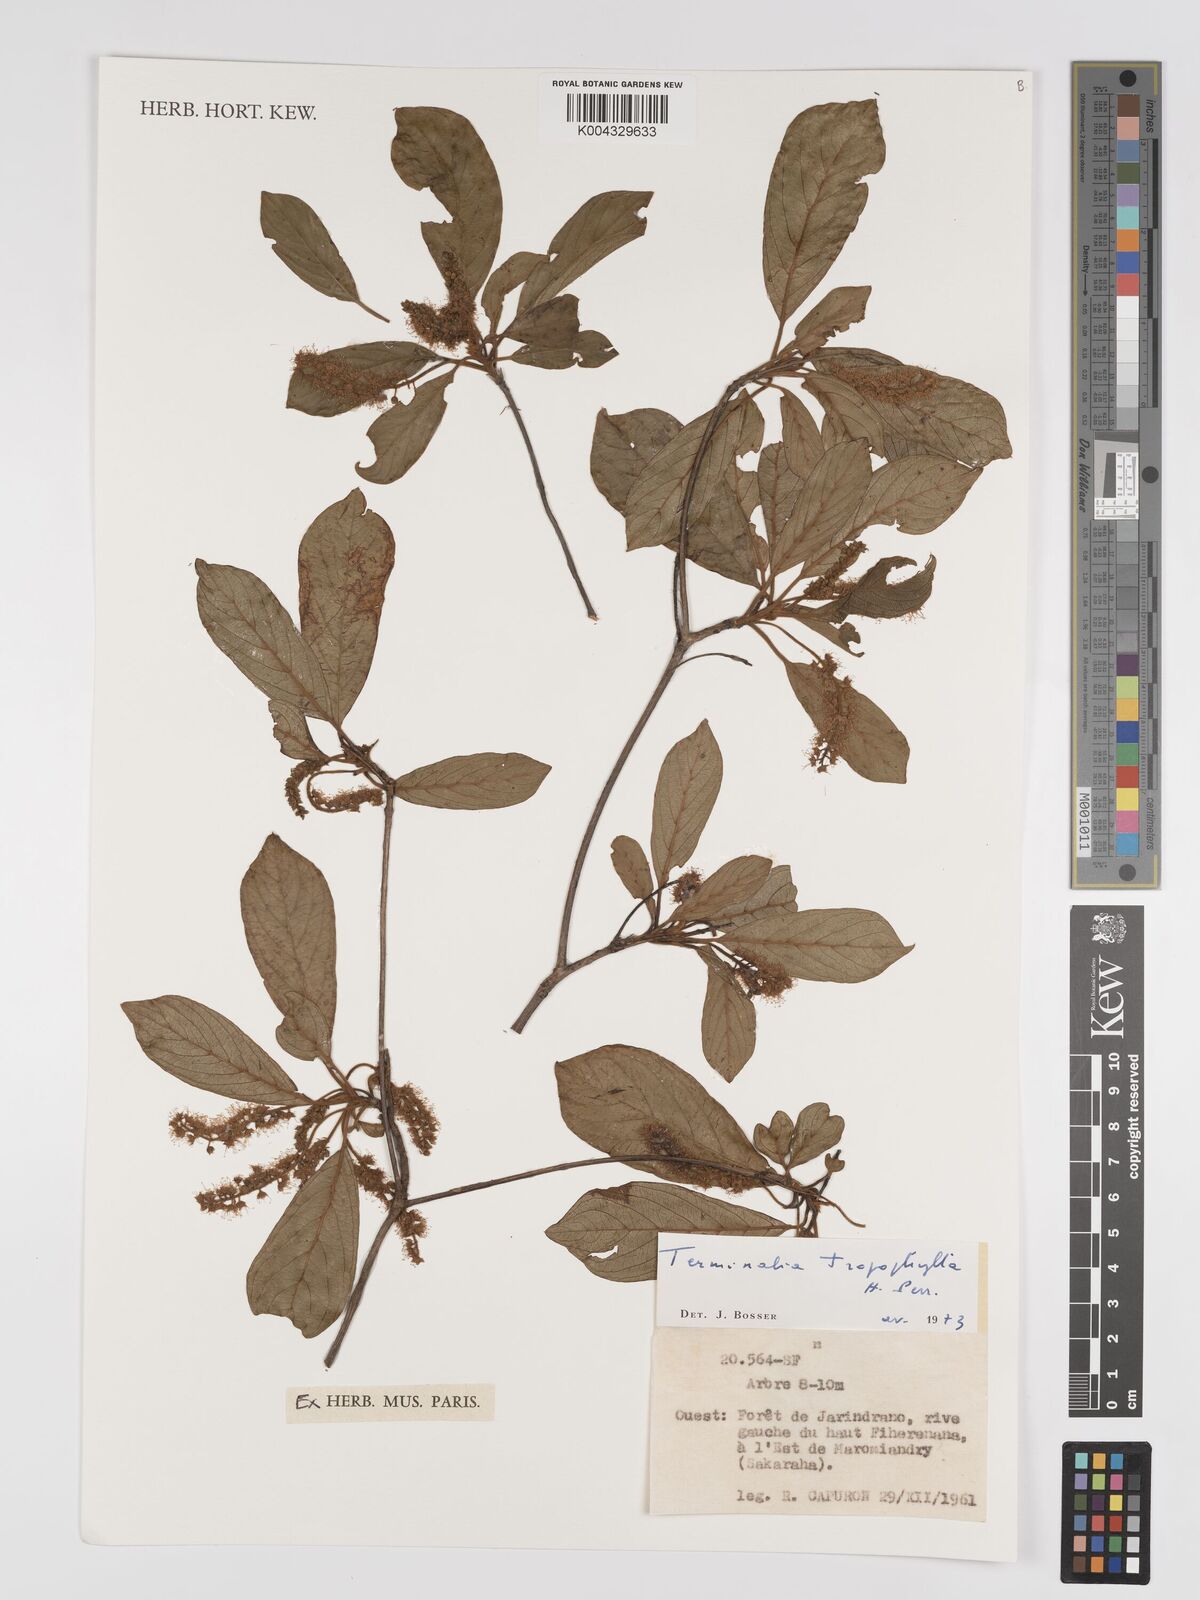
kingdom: Plantae
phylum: Tracheophyta
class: Magnoliopsida
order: Myrtales
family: Combretaceae
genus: Terminalia
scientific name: Terminalia tropophylla
